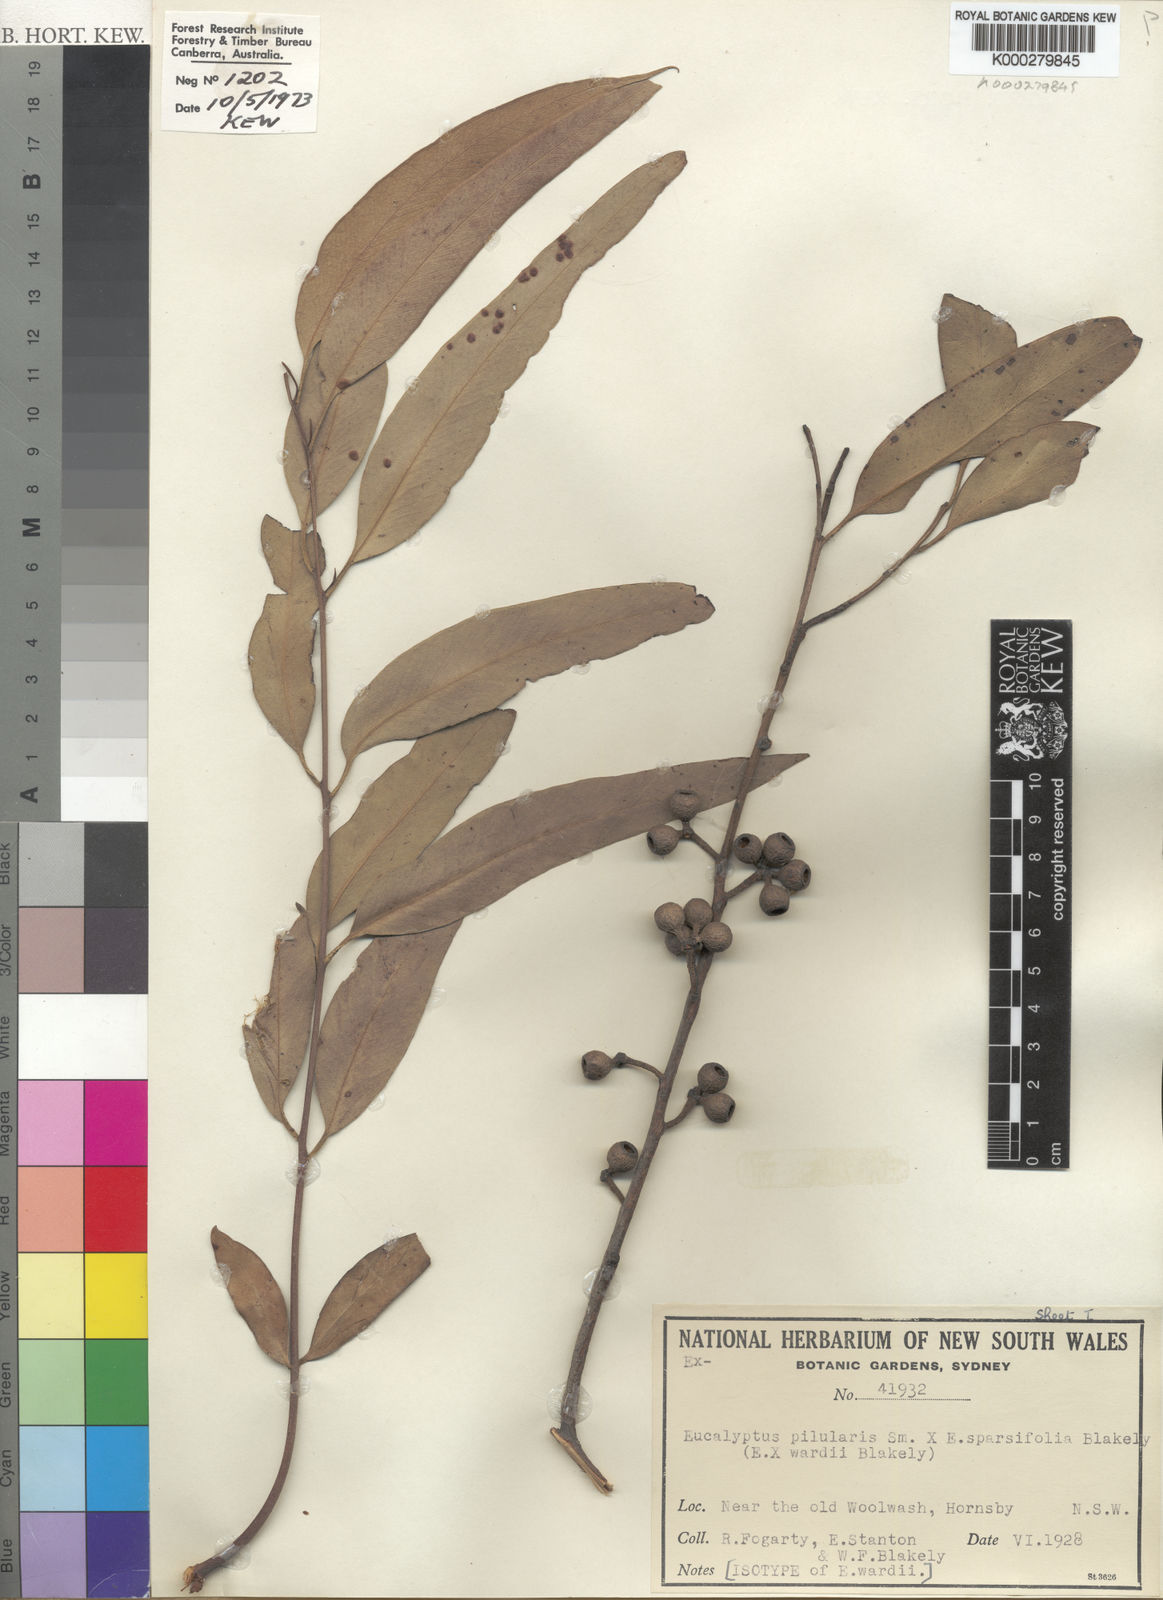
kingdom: Plantae
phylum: Tracheophyta
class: Magnoliopsida
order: Myrtales
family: Myrtaceae
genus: Eucalyptus
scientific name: Eucalyptus wardii
